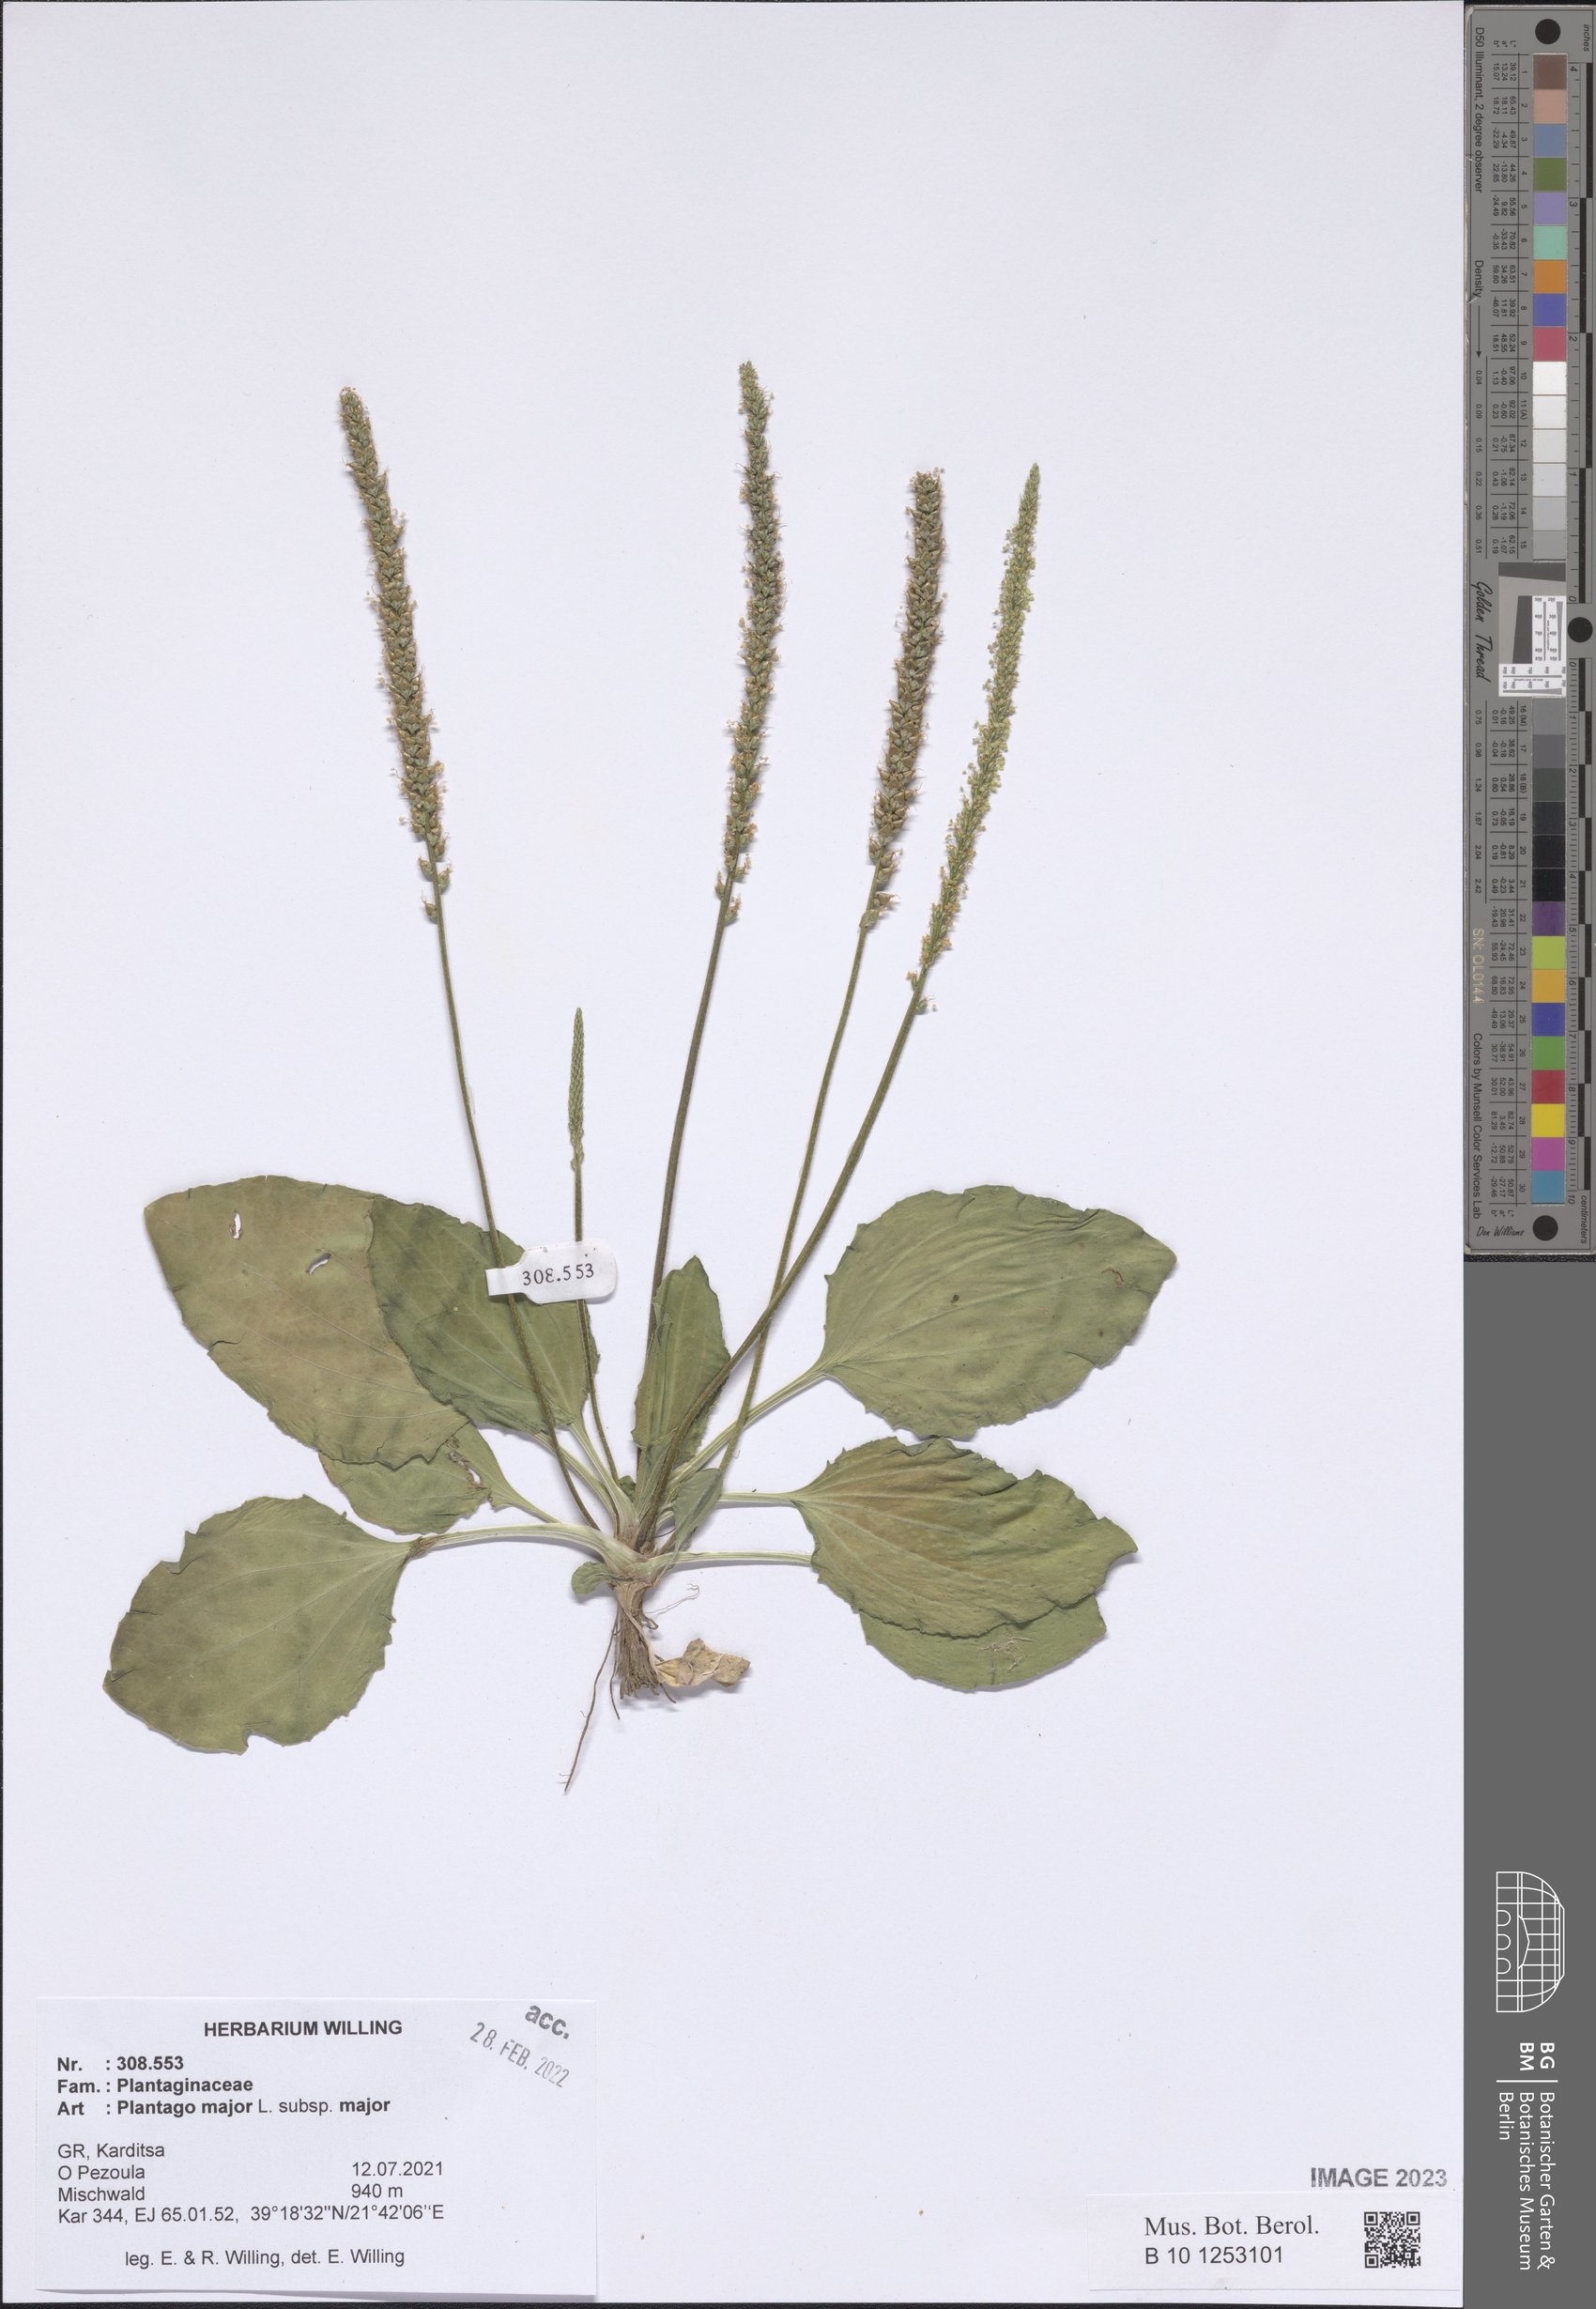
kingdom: Plantae
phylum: Tracheophyta
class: Magnoliopsida
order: Lamiales
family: Plantaginaceae
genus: Plantago
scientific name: Plantago major
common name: Common plantain
